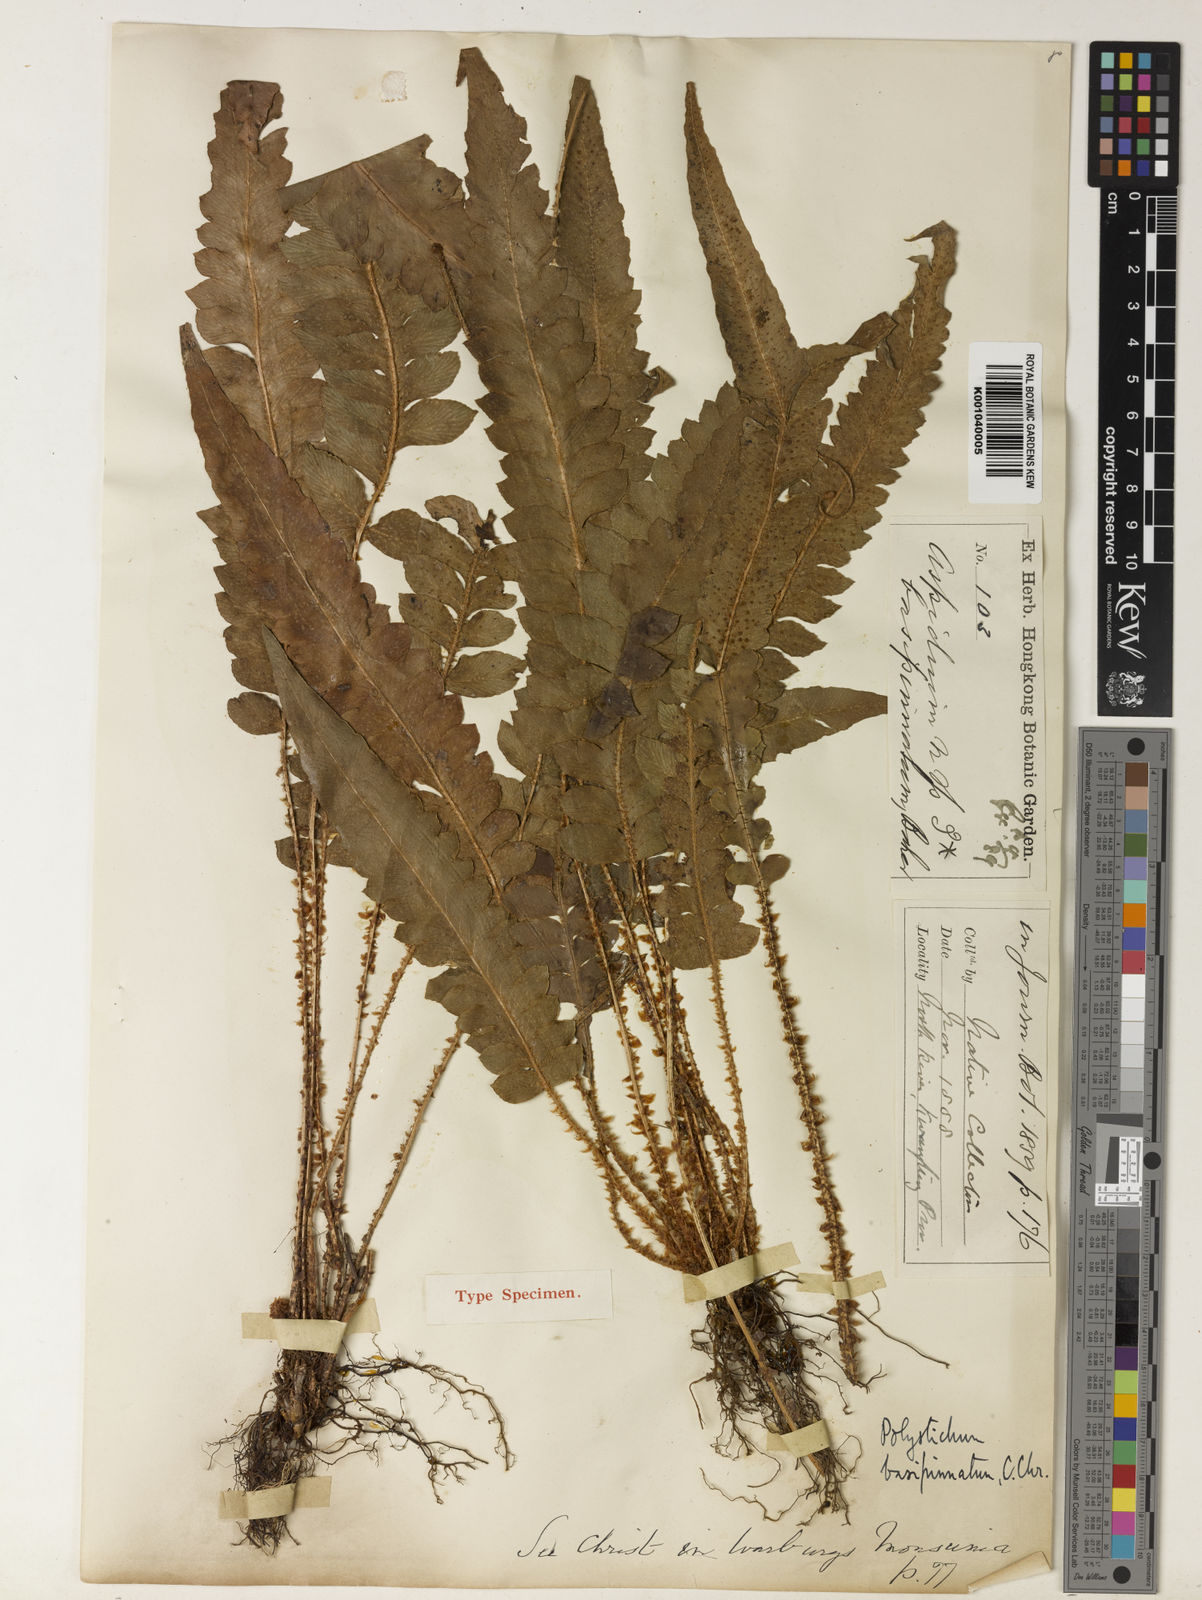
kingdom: Plantae
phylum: Tracheophyta
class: Polypodiopsida
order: Polypodiales
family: Dryopteridaceae
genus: Polystichum
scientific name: Polystichum basipinnatum
